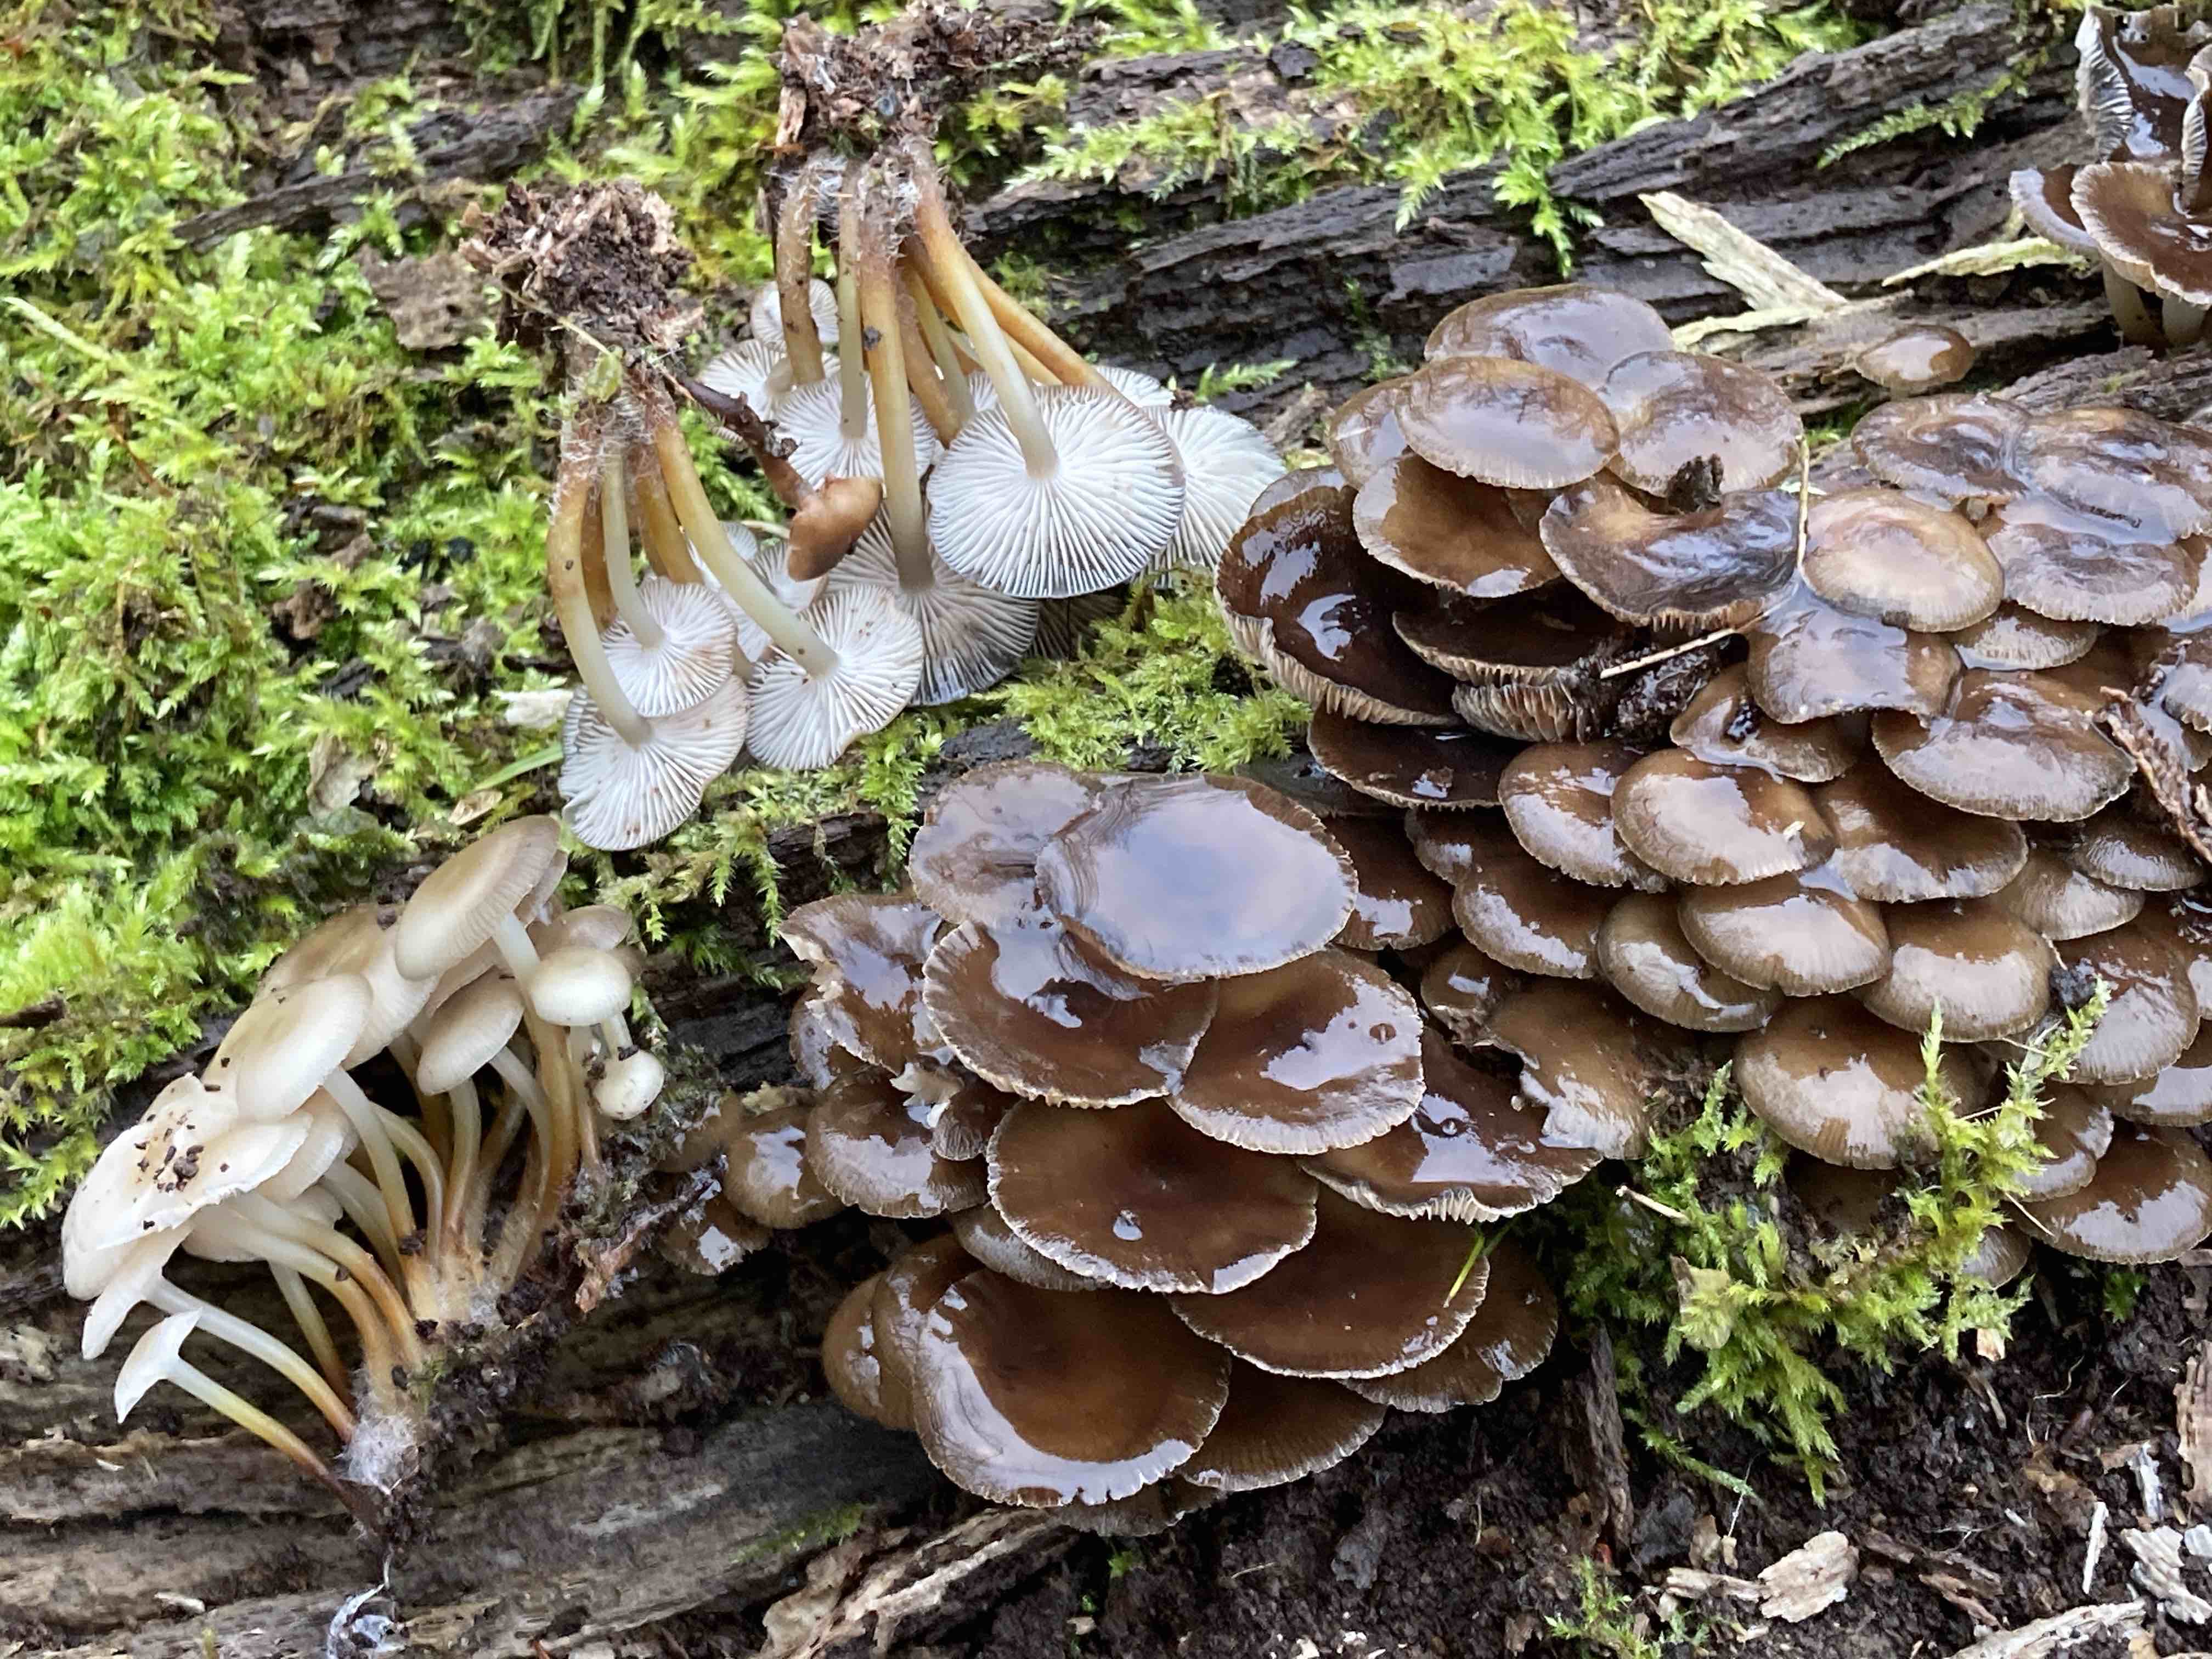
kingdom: Fungi
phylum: Basidiomycota
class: Agaricomycetes
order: Agaricales
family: Mycenaceae
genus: Mycena
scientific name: Mycena tintinnabulum
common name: vinter-huesvamp
